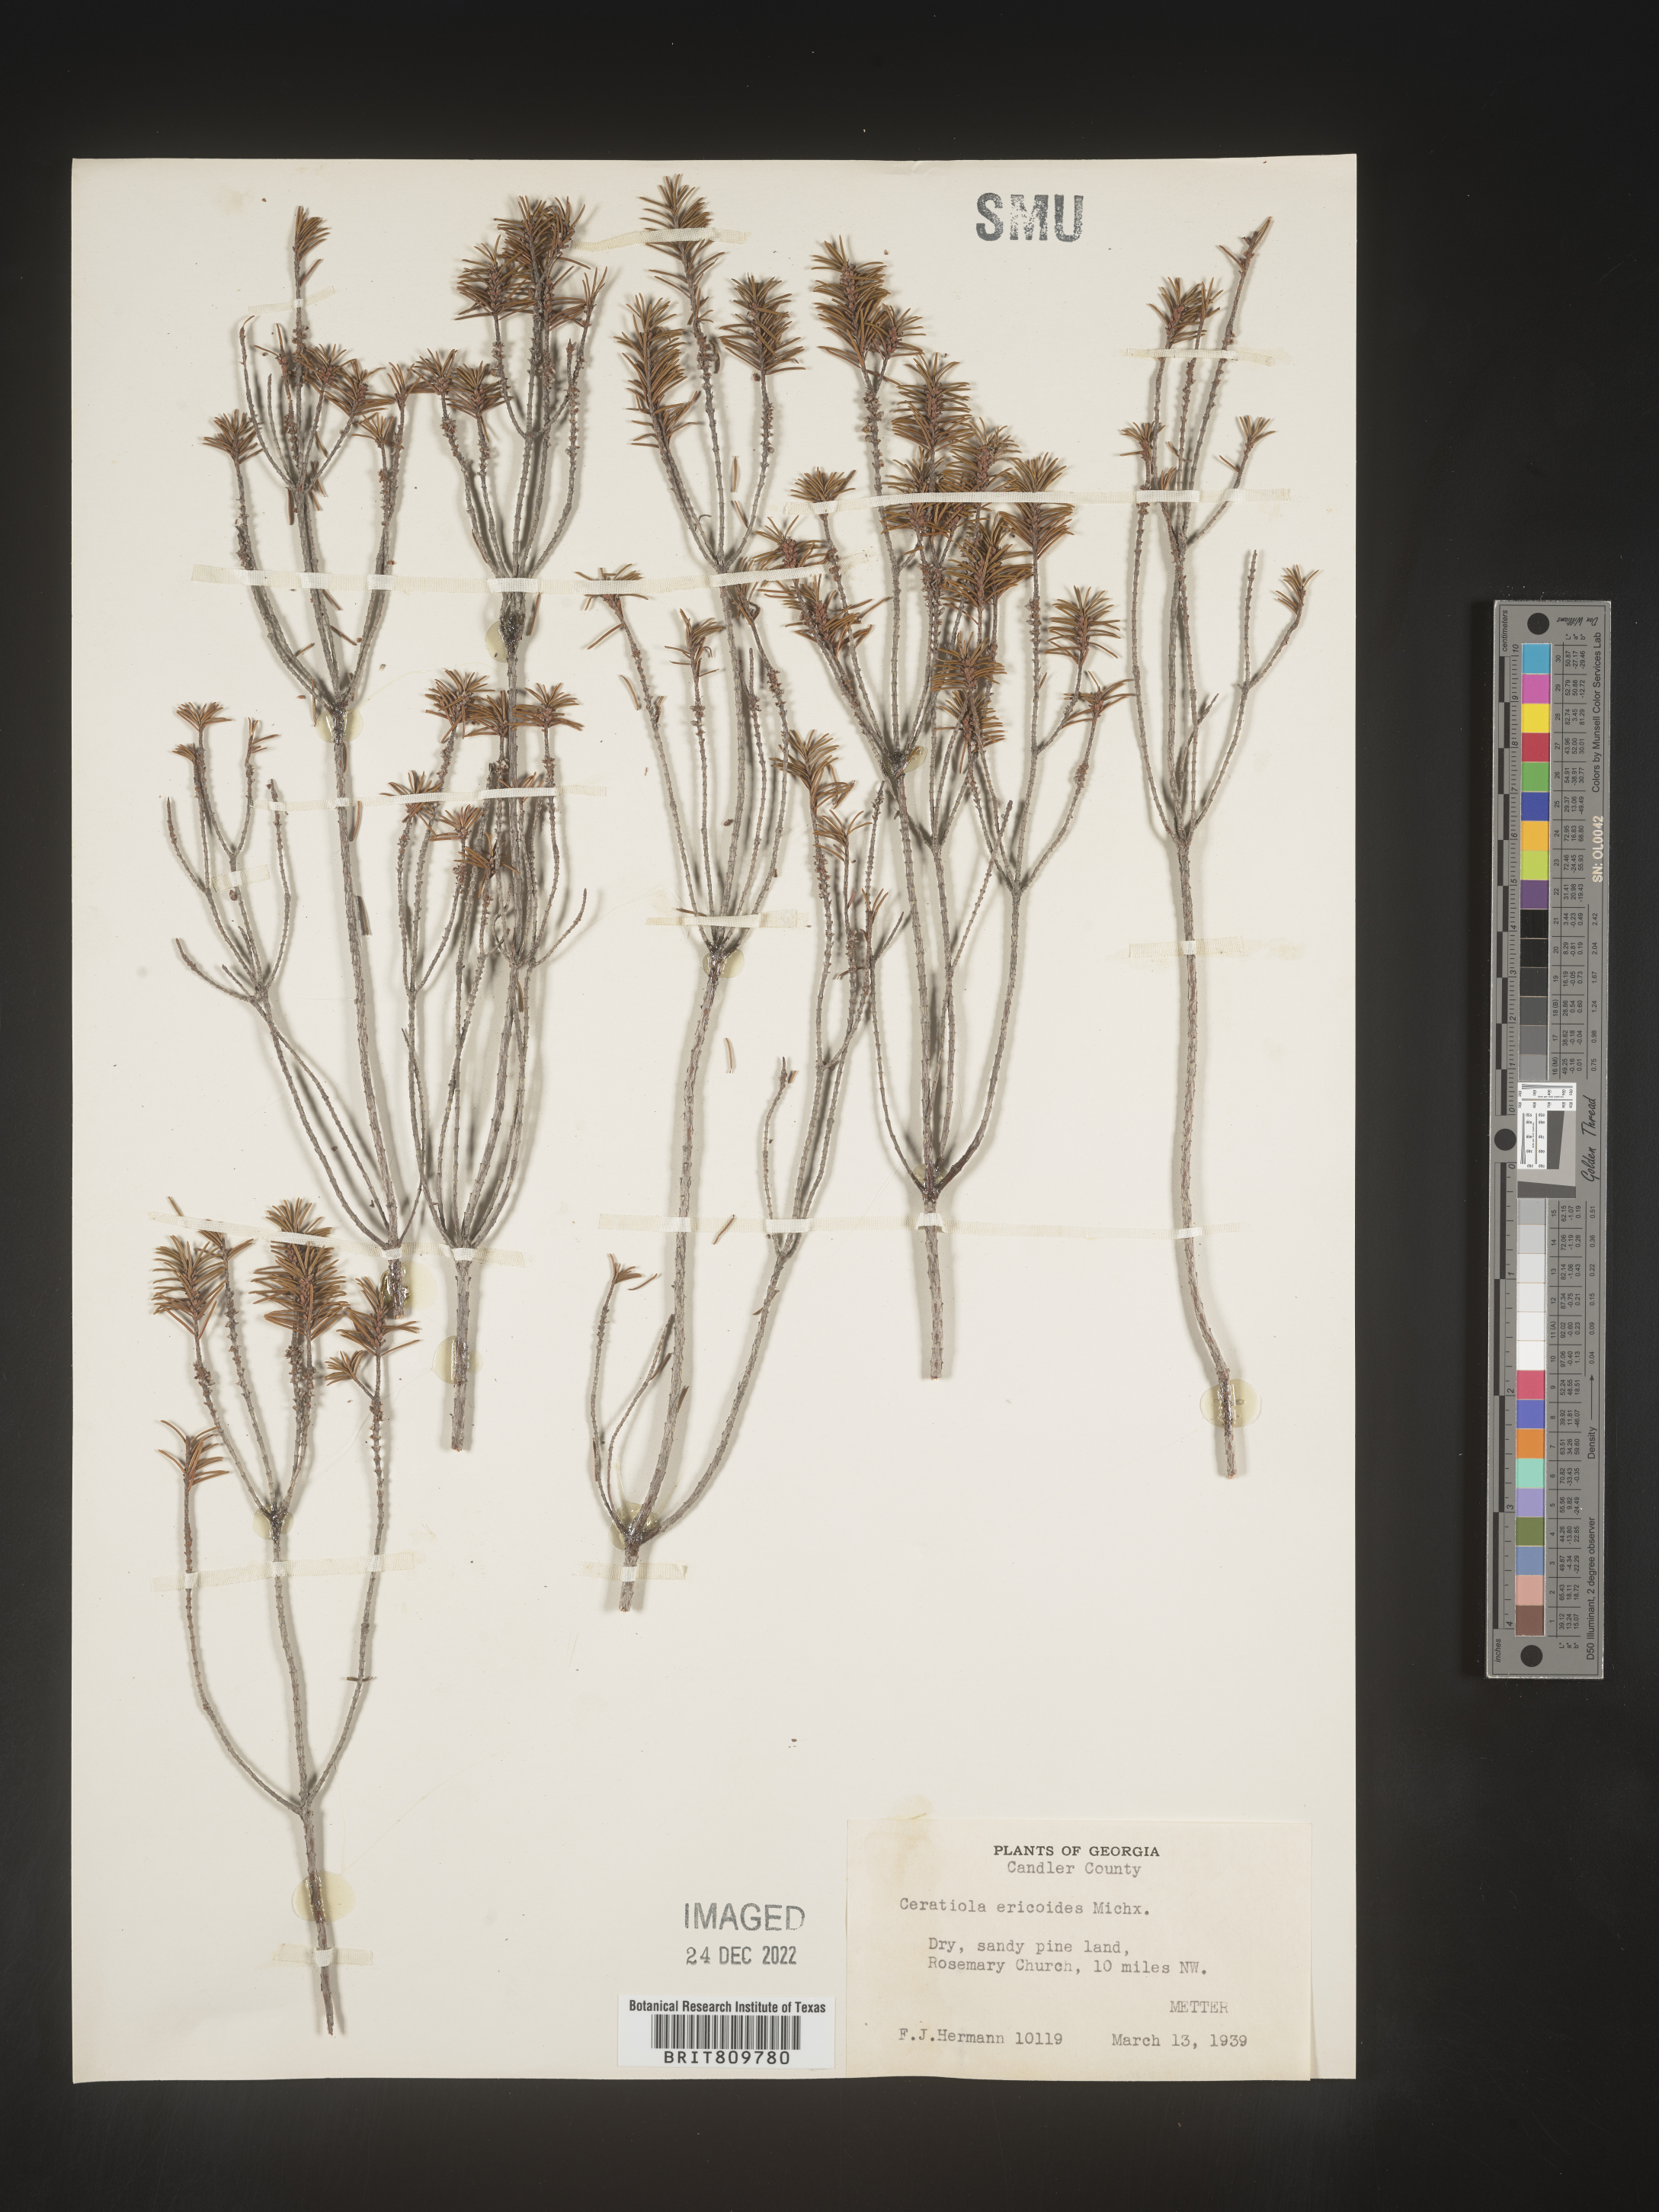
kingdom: Plantae
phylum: Tracheophyta
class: Magnoliopsida
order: Ericales
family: Ericaceae
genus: Ceratiola
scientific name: Ceratiola ericoides
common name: Sandhill-rosemary
